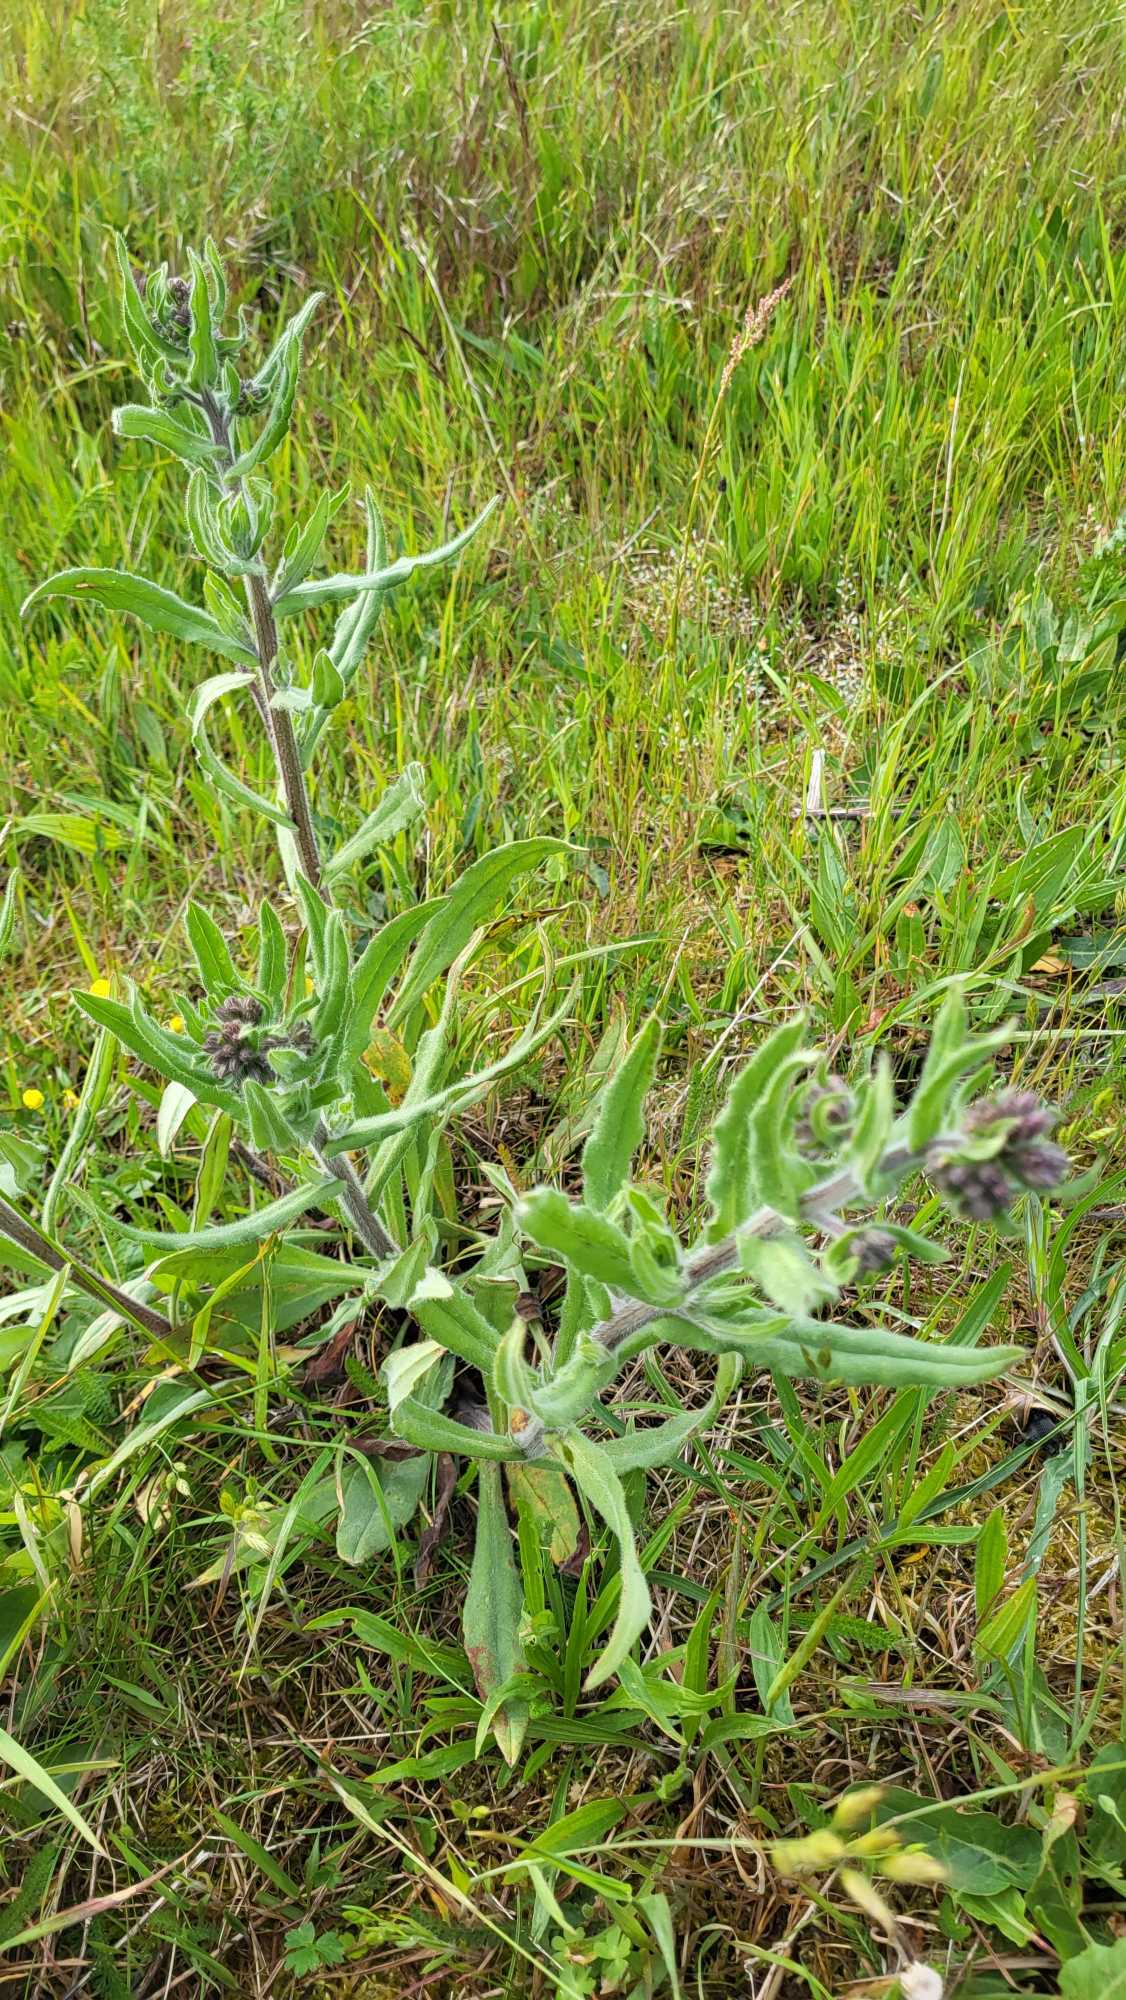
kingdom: Plantae
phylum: Tracheophyta
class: Magnoliopsida
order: Boraginales
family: Boraginaceae
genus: Anchusa
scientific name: Anchusa officinalis
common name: Læge-oksetunge
